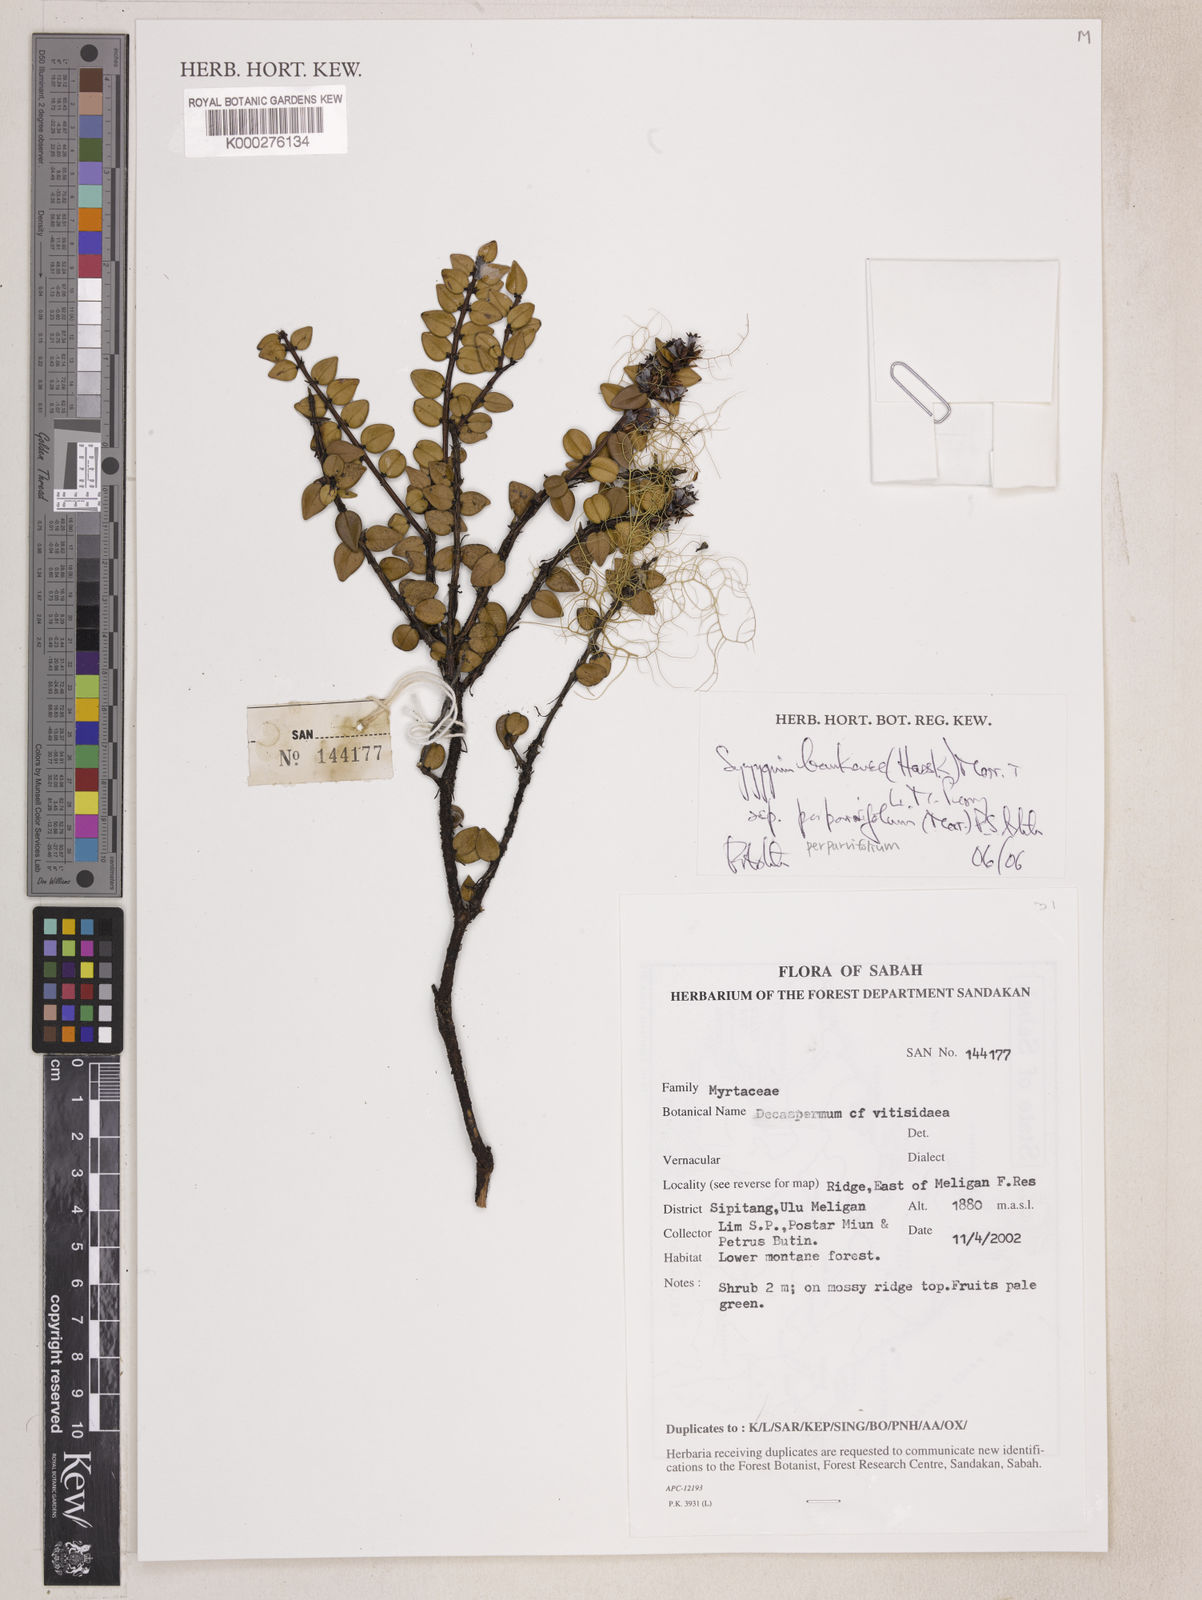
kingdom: Plantae
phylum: Tracheophyta
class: Magnoliopsida
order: Myrtales
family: Myrtaceae
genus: Syzygium
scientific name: Syzygium bankense
